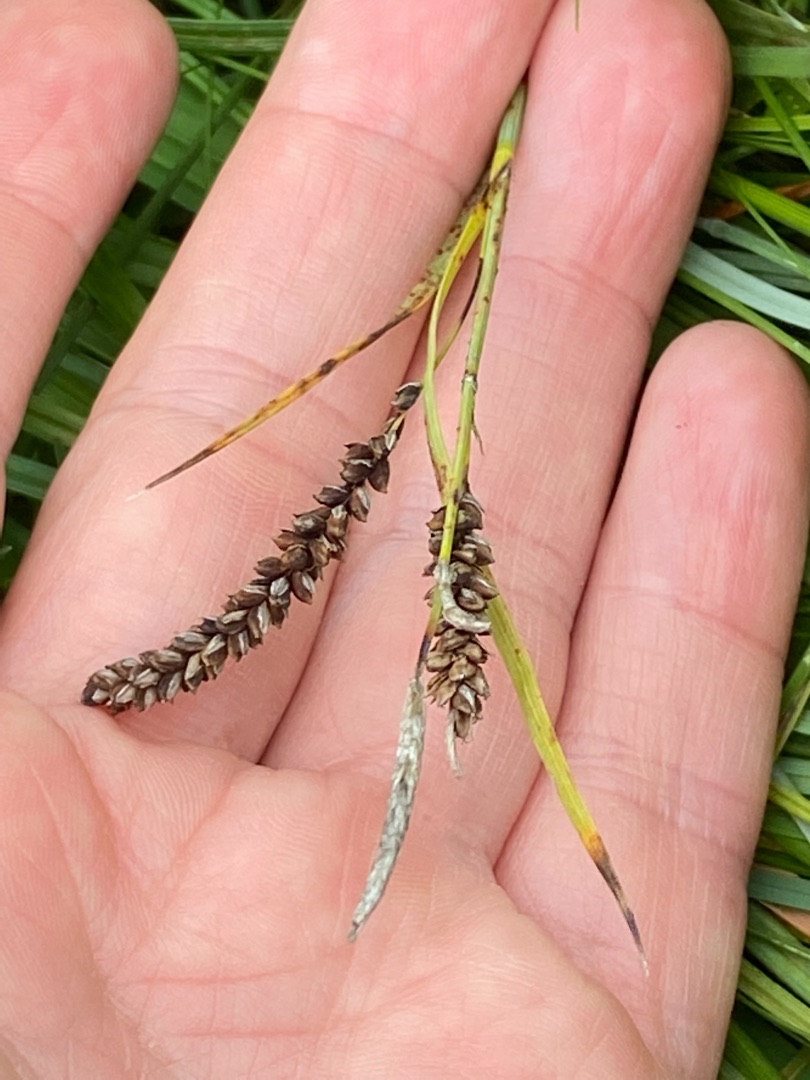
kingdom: Plantae
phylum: Tracheophyta
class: Liliopsida
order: Poales
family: Cyperaceae
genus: Carex
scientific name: Carex flacca
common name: Blågrøn star
